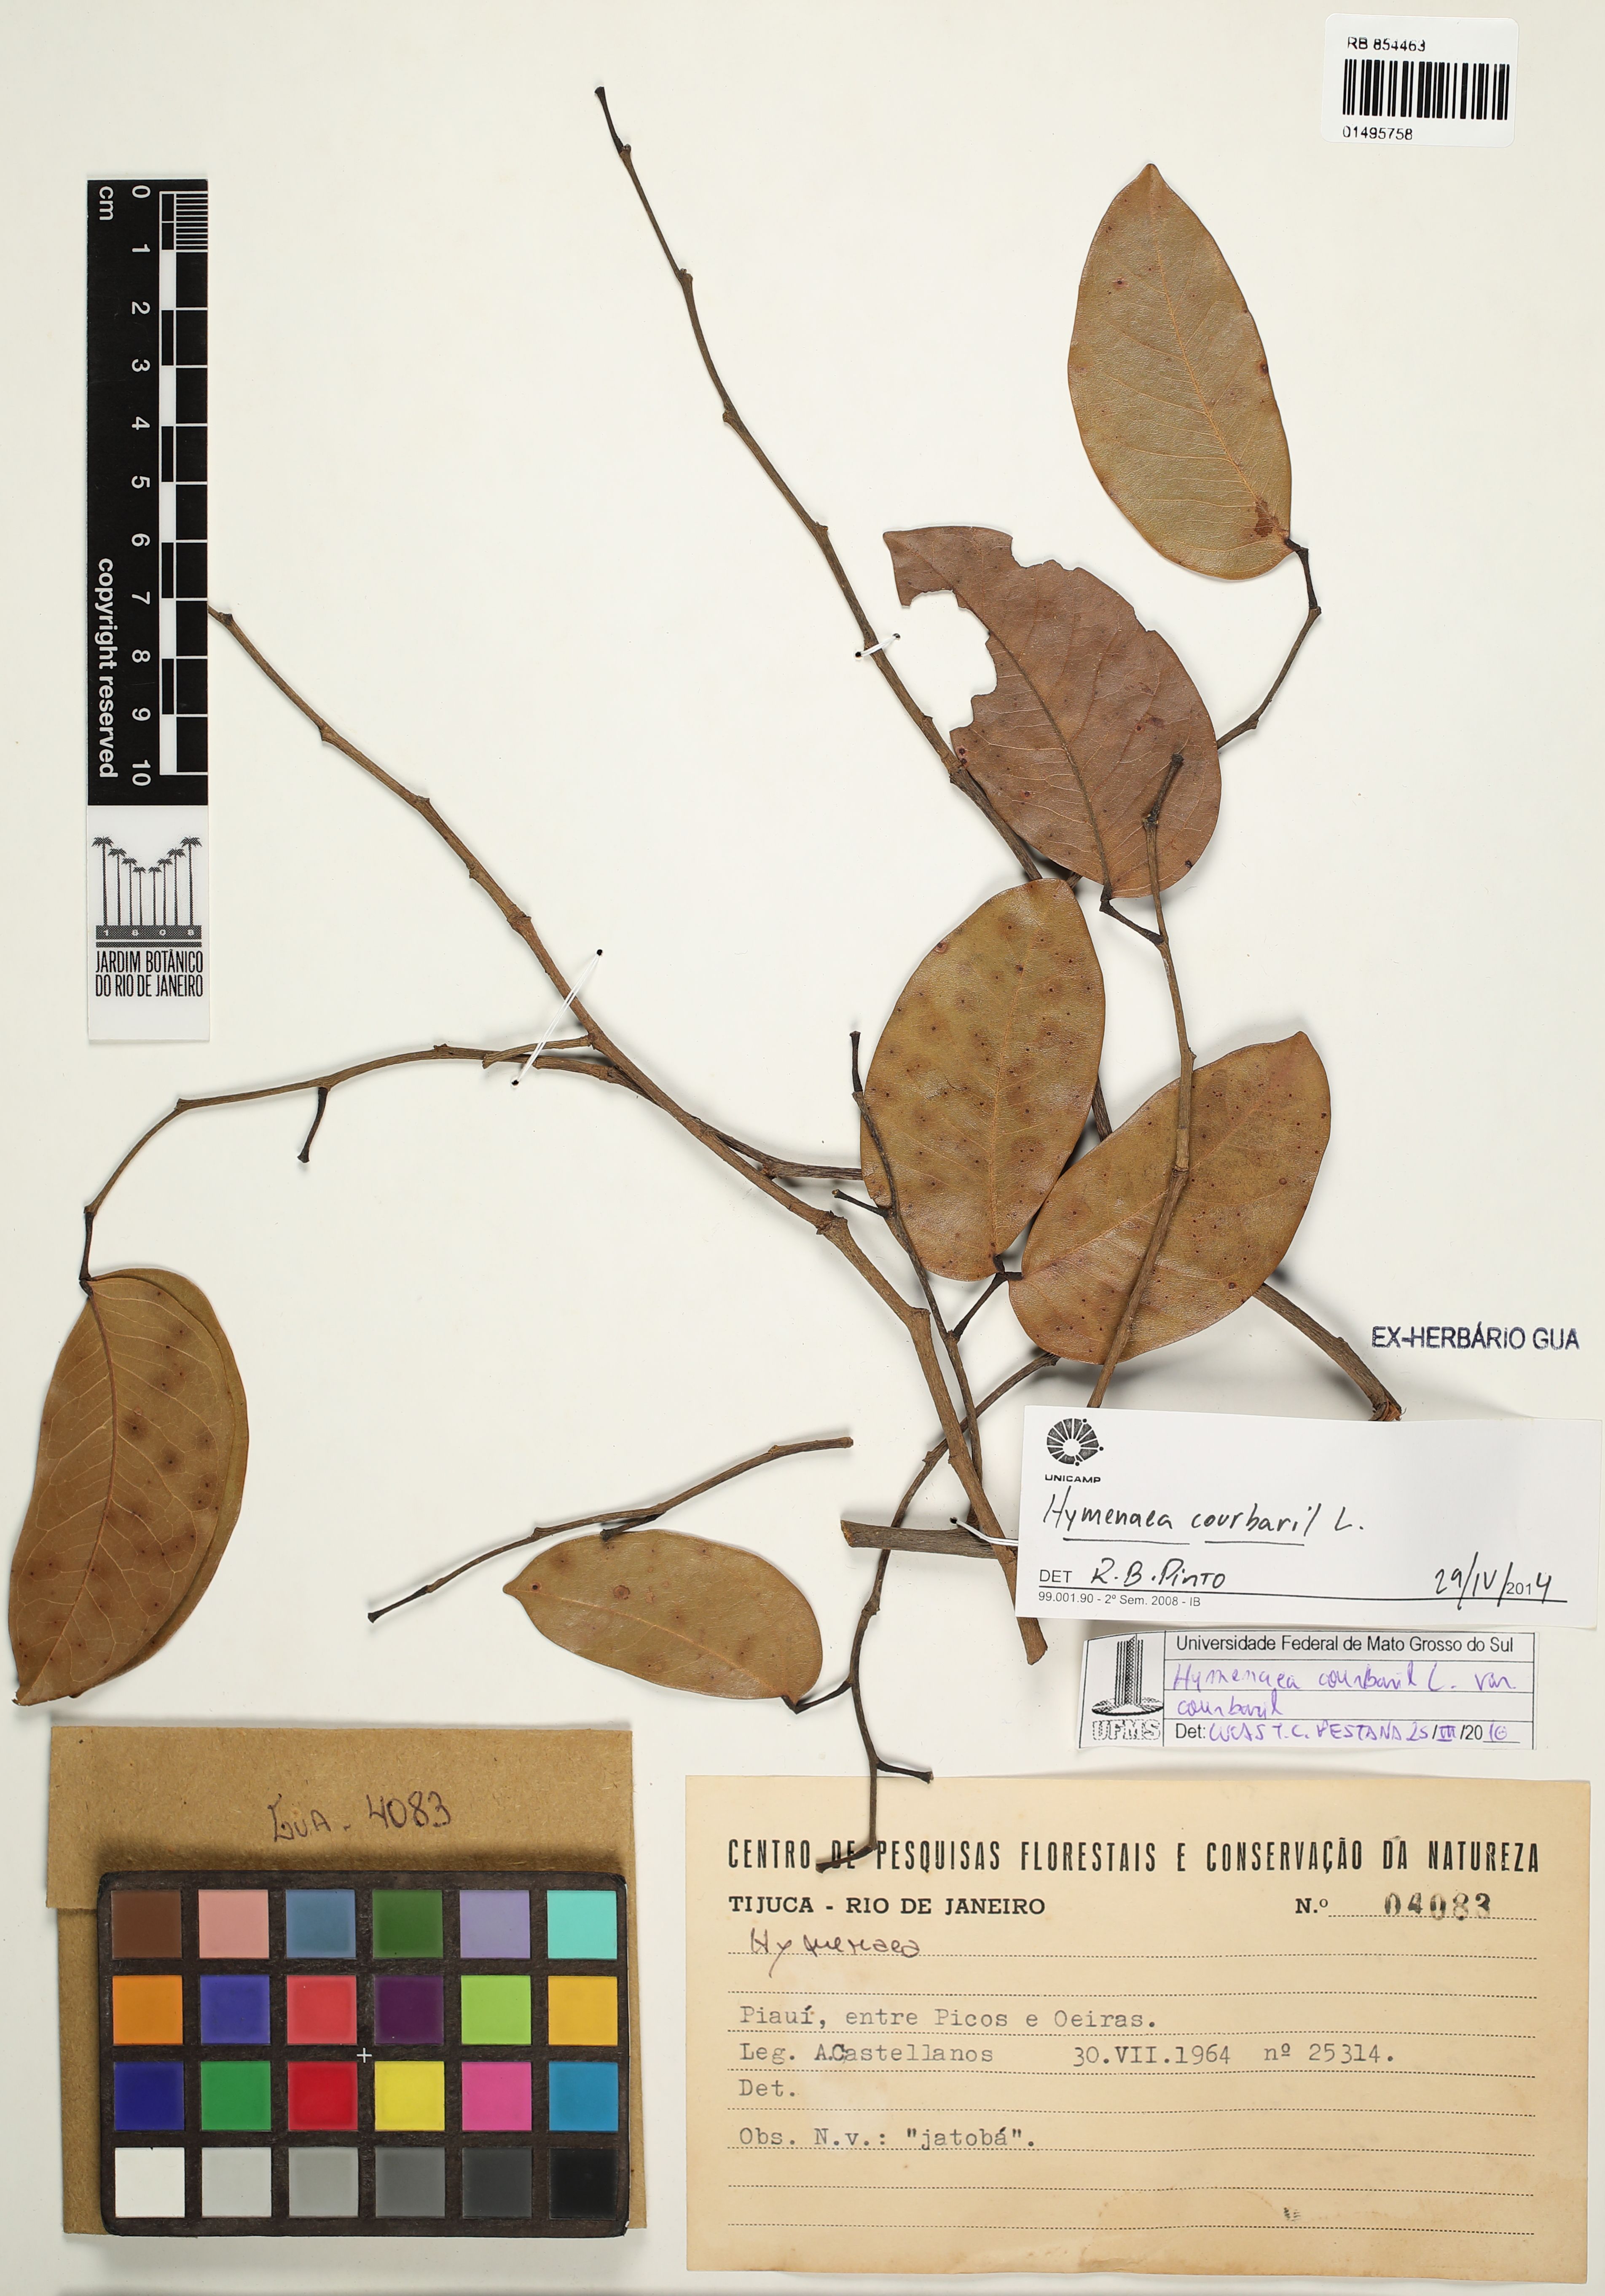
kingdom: Plantae
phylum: Tracheophyta
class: Magnoliopsida
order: Fabales
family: Fabaceae
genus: Hymenaea
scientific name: Hymenaea courbaril
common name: Brazilian copal
